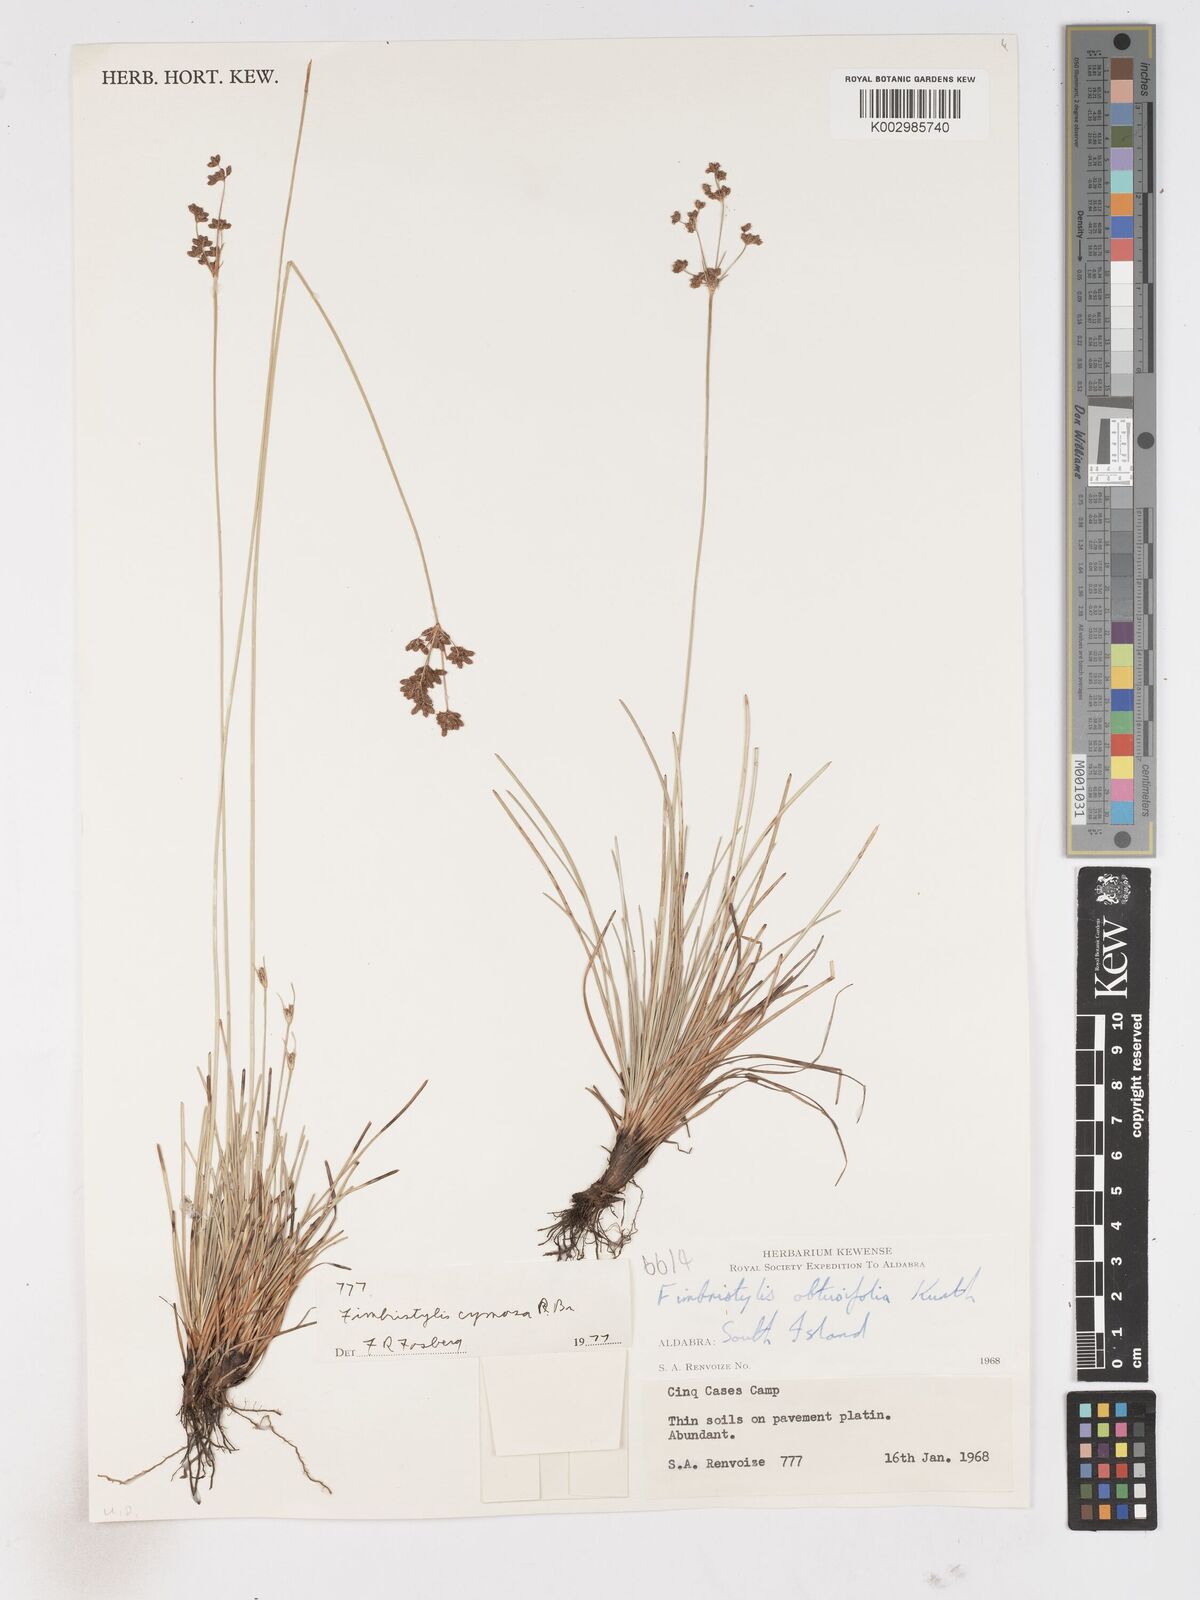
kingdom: Plantae
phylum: Tracheophyta
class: Liliopsida
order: Poales
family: Cyperaceae
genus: Fimbristylis
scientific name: Fimbristylis cymosa
